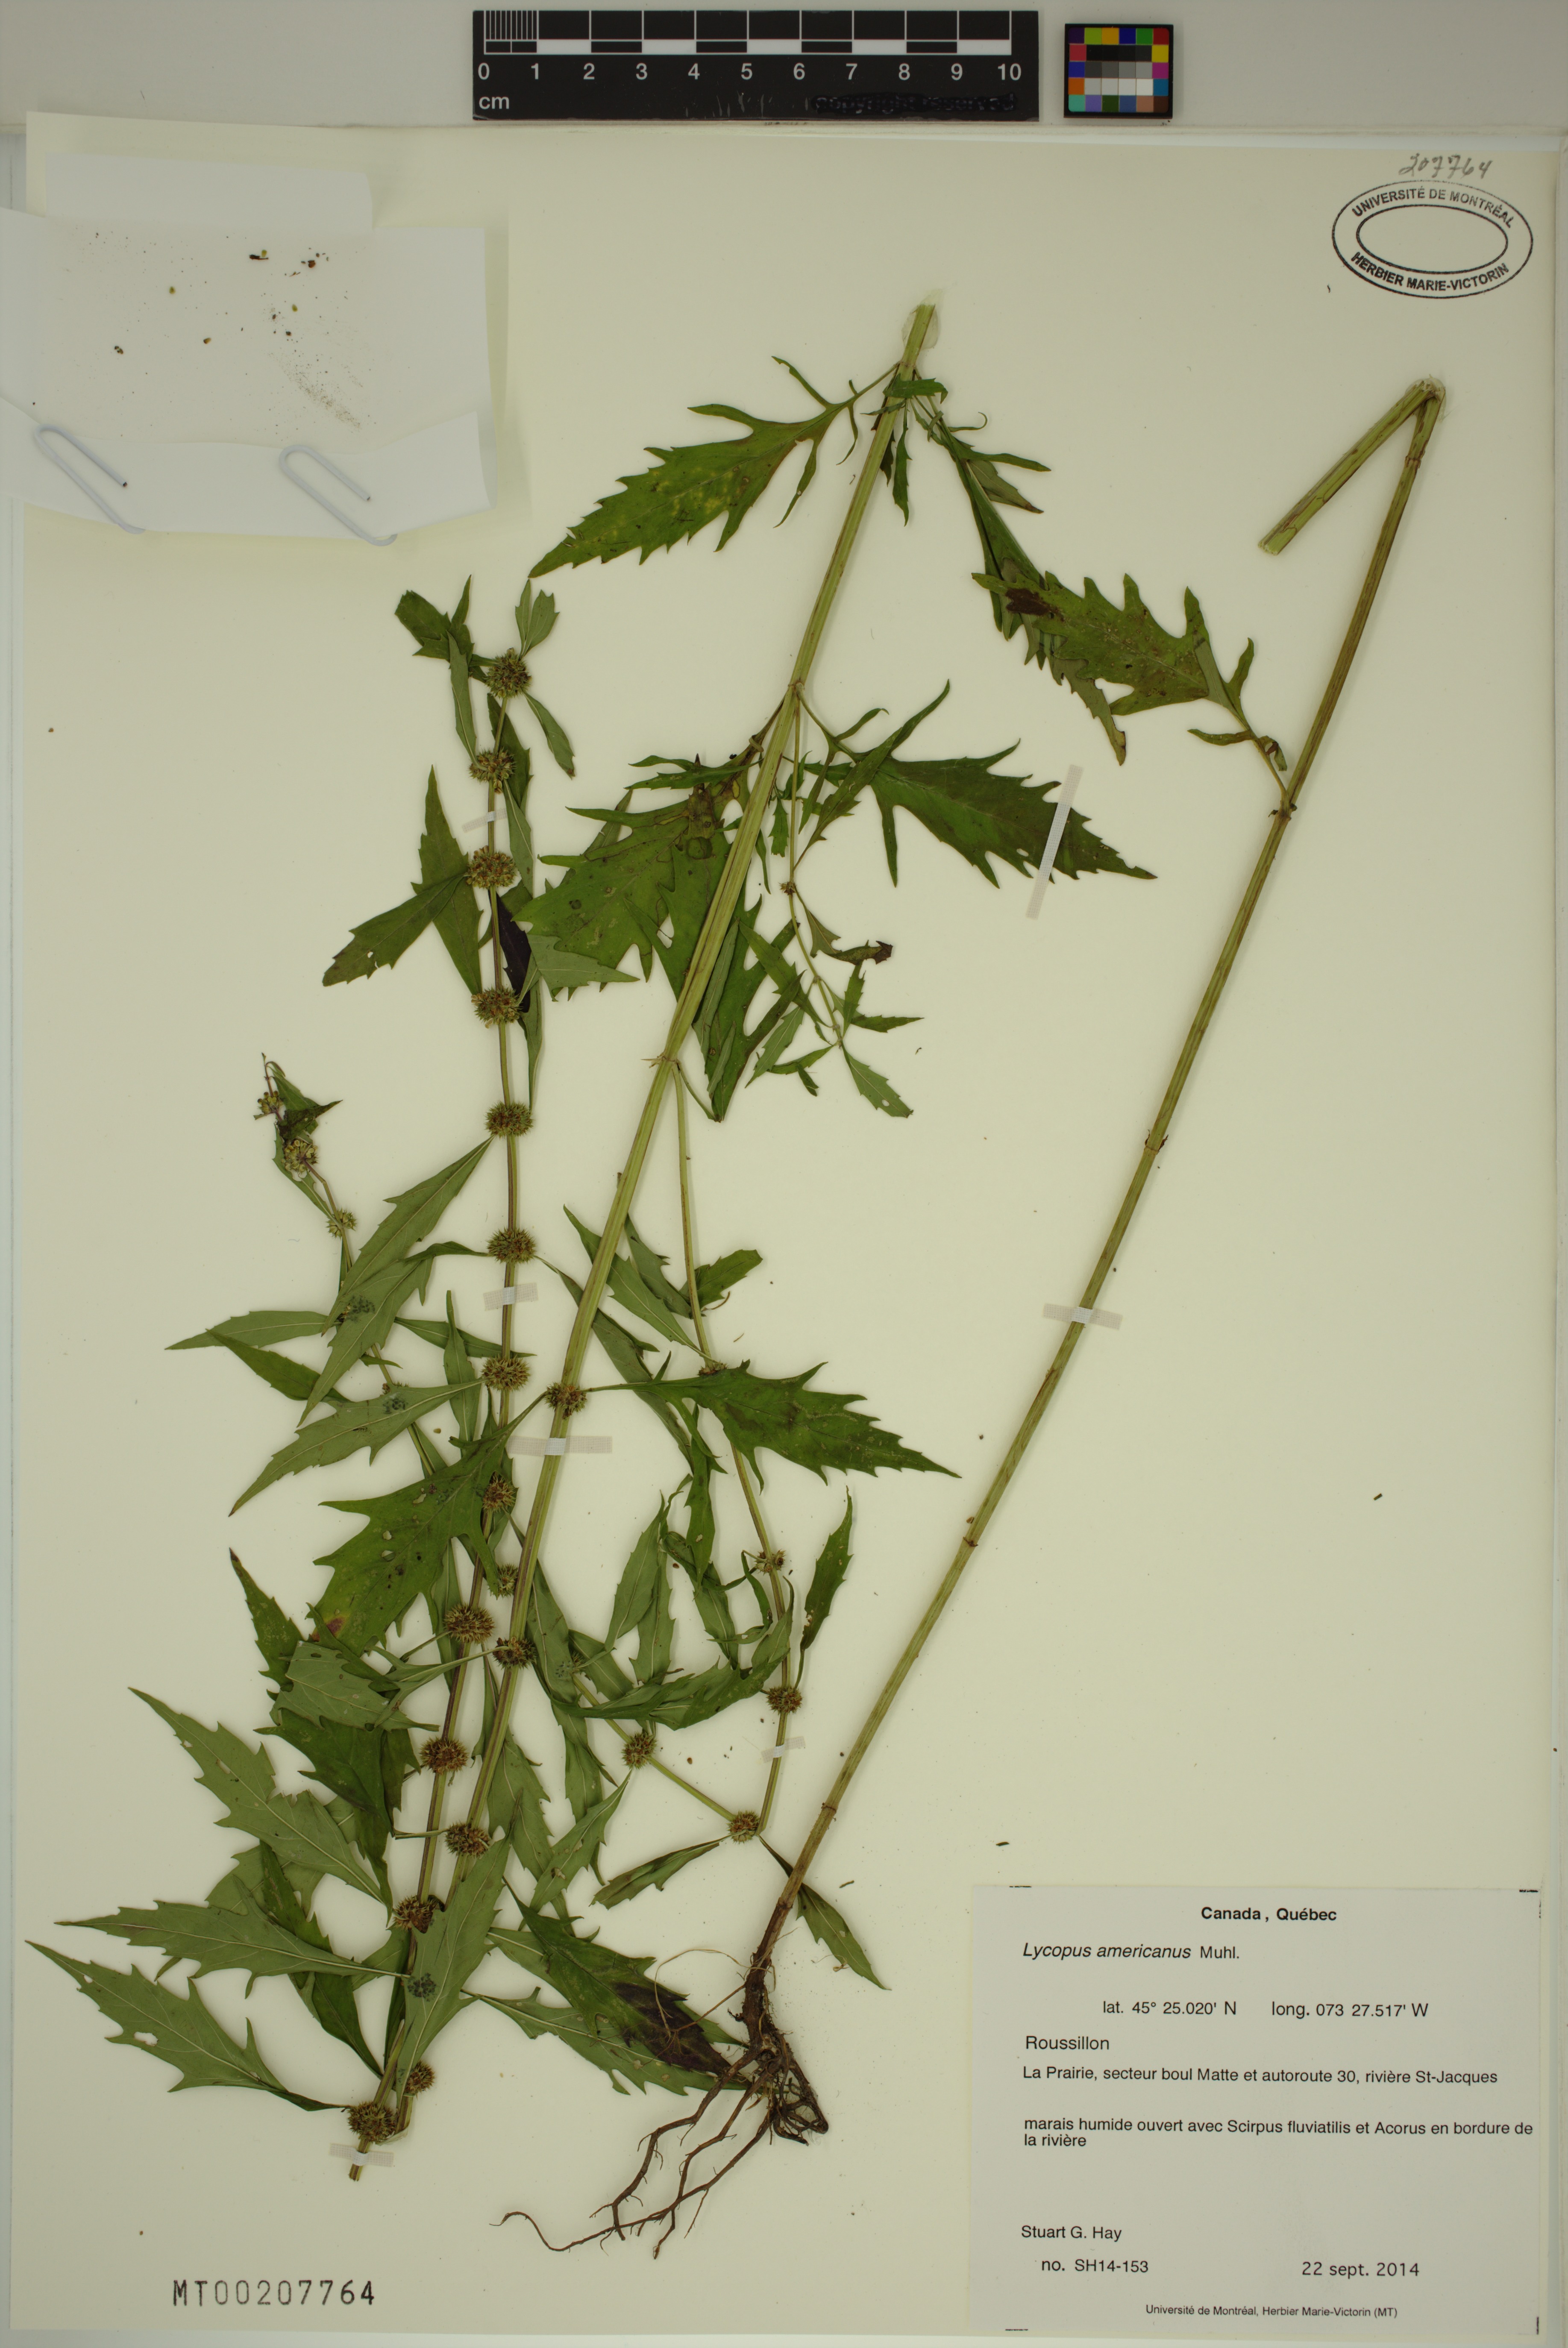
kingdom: Plantae
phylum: Tracheophyta
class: Magnoliopsida
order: Lamiales
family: Lamiaceae
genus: Lycopus
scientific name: Lycopus americanus
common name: American bugleweed
